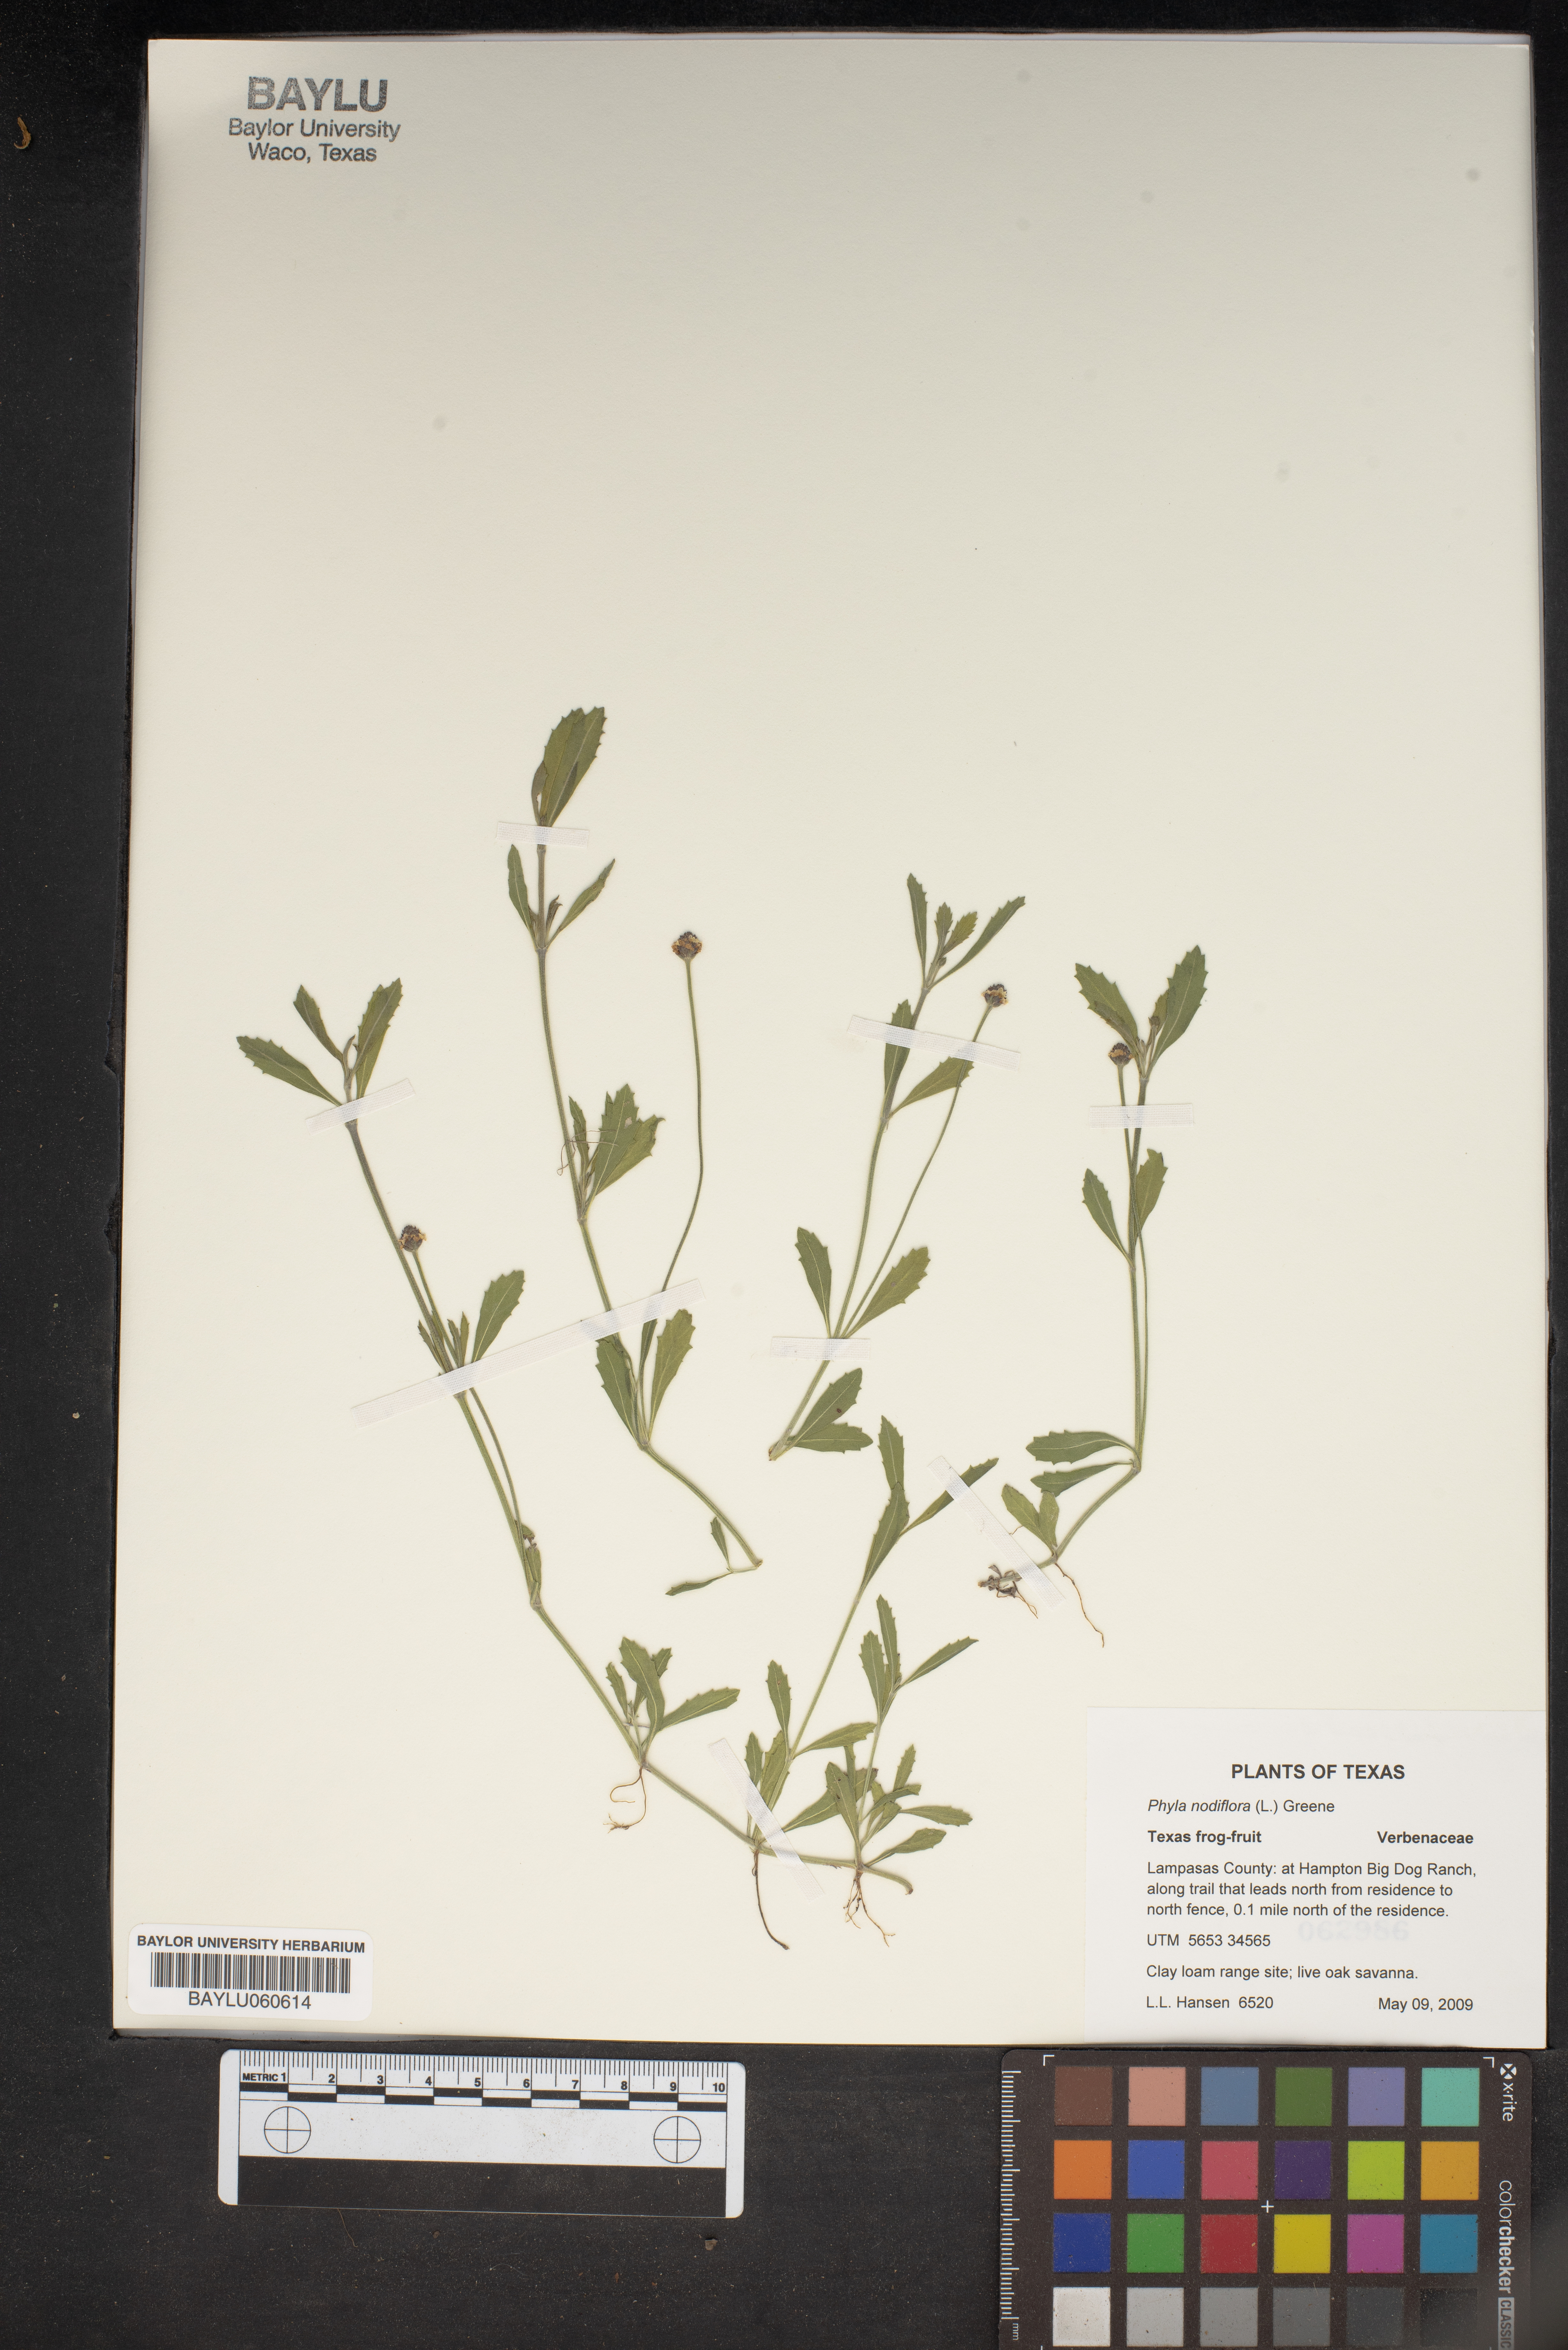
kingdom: Plantae
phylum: Tracheophyta
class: Magnoliopsida
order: Lamiales
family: Verbenaceae
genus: Phyla
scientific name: Phyla nodiflora
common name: Frogfruit
